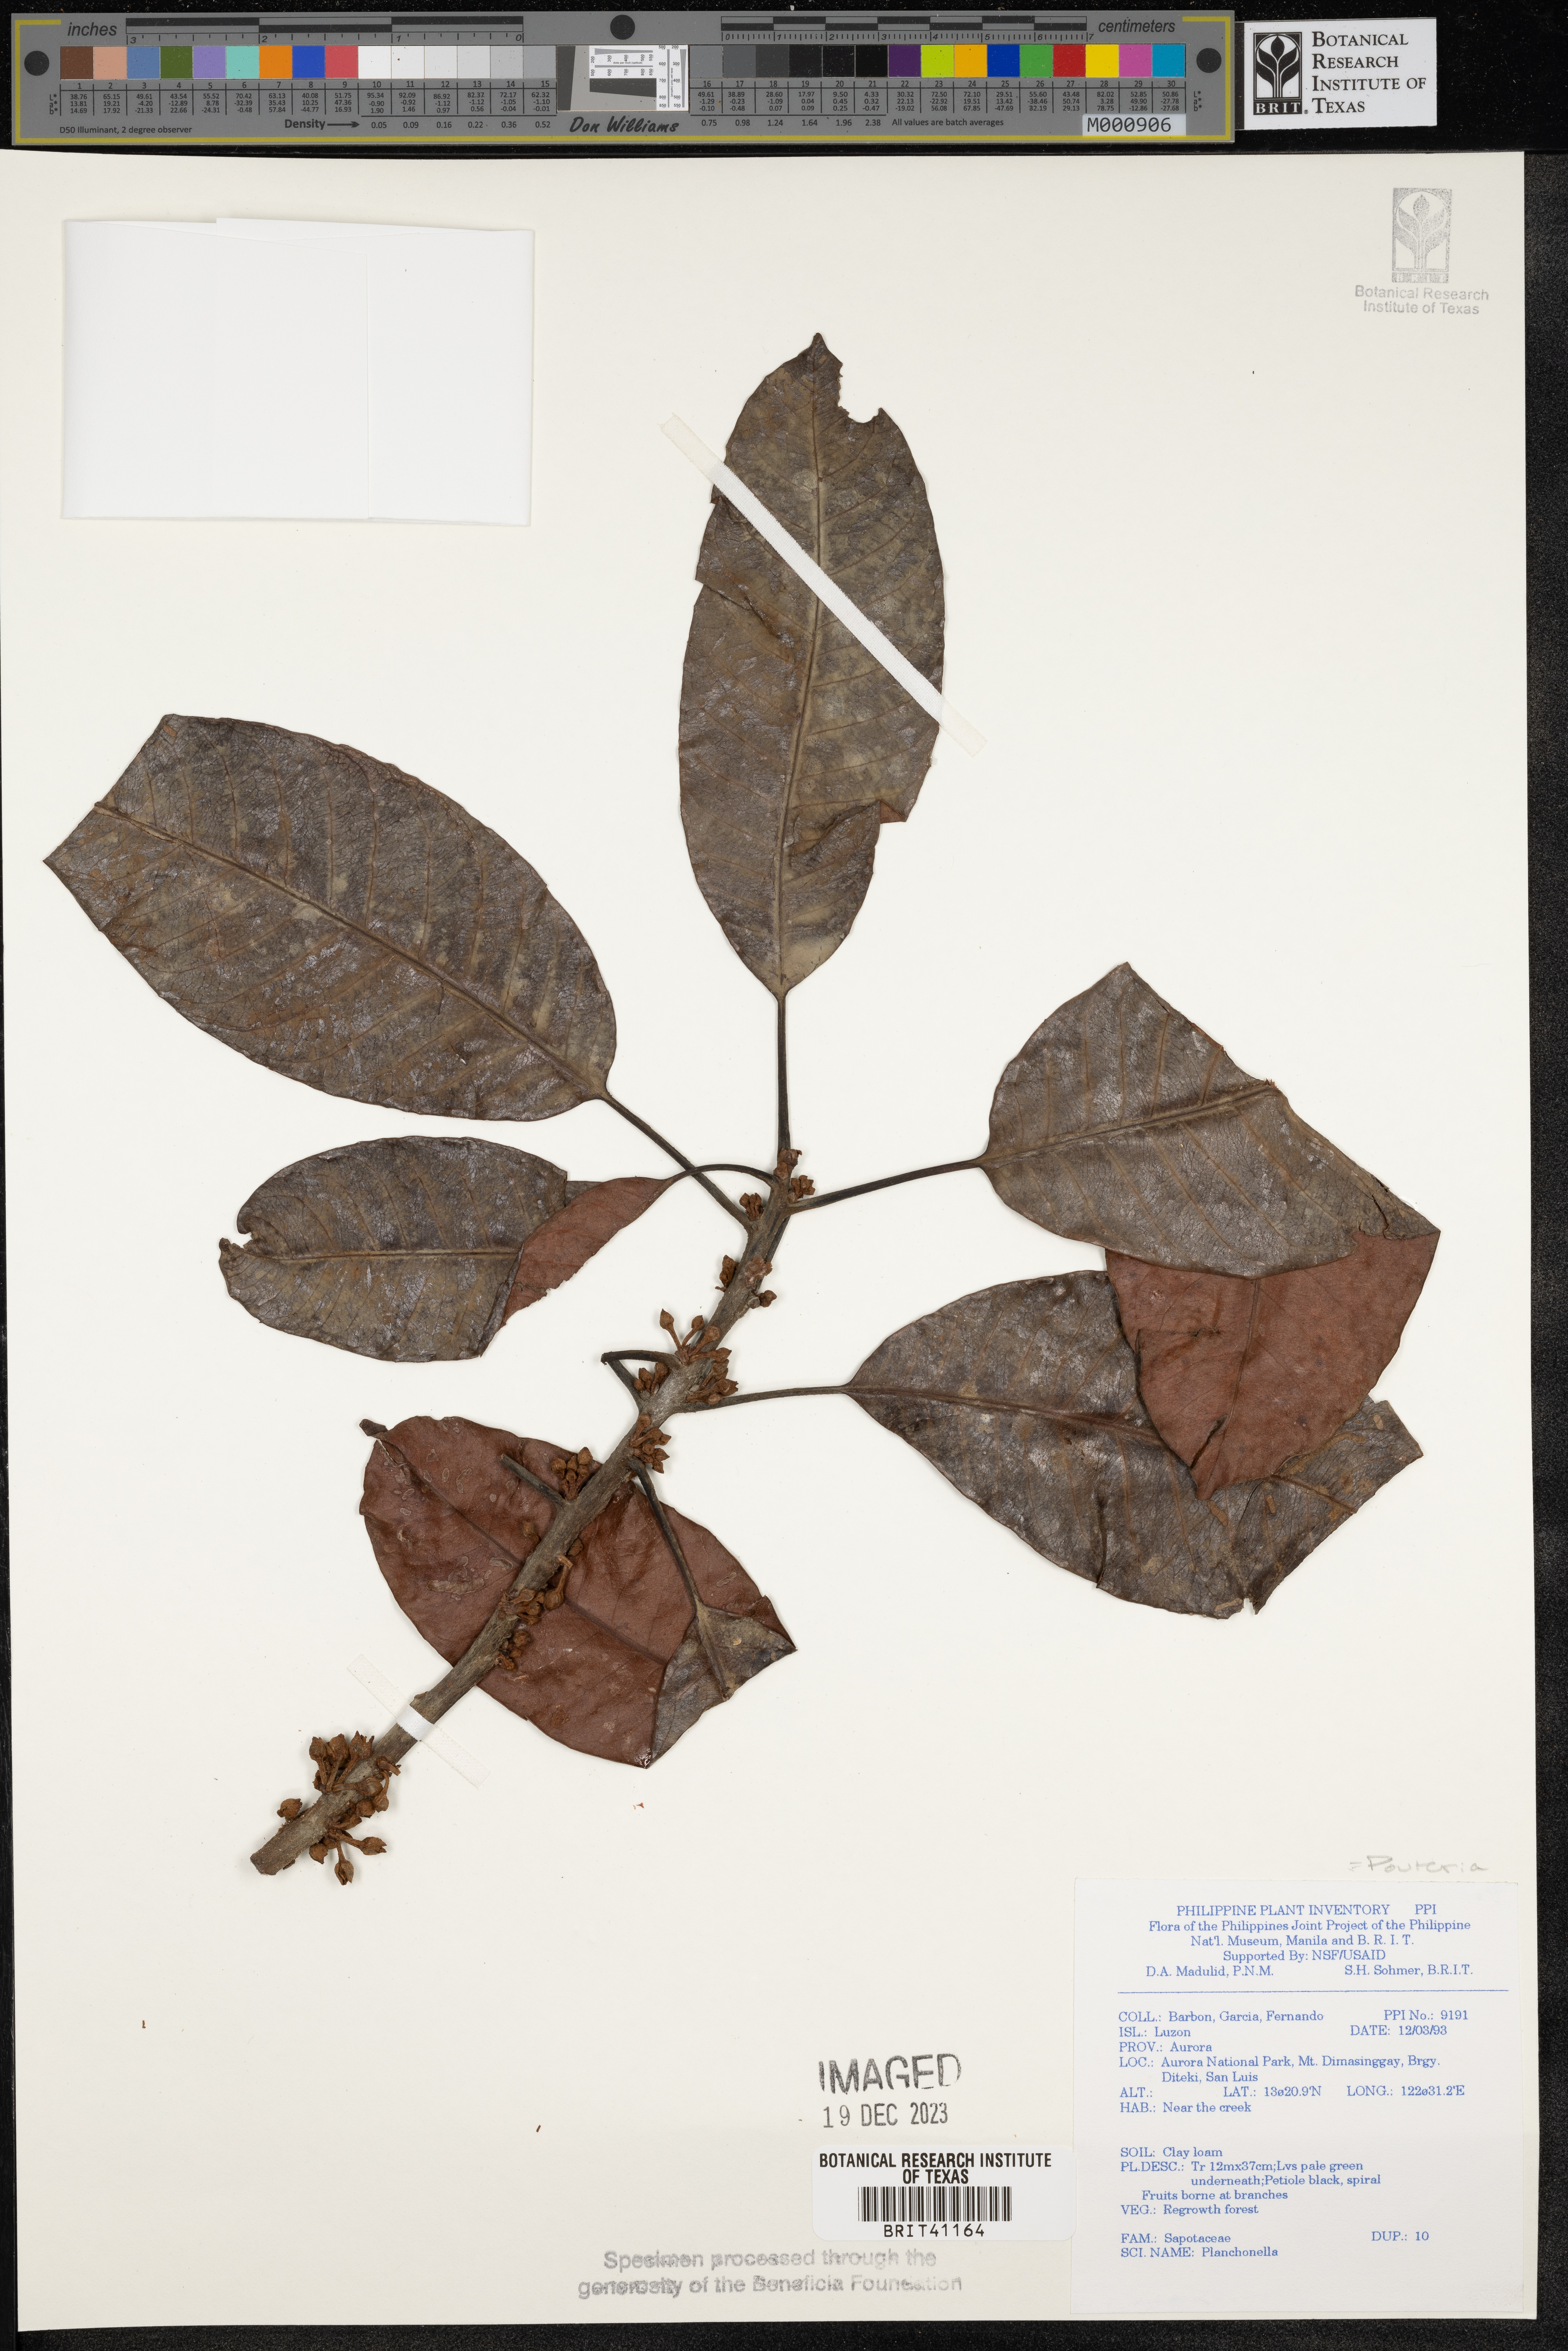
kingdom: Plantae
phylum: Tracheophyta
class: Magnoliopsida
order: Ericales
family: Sapotaceae
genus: Pouteria
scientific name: Pouteria
